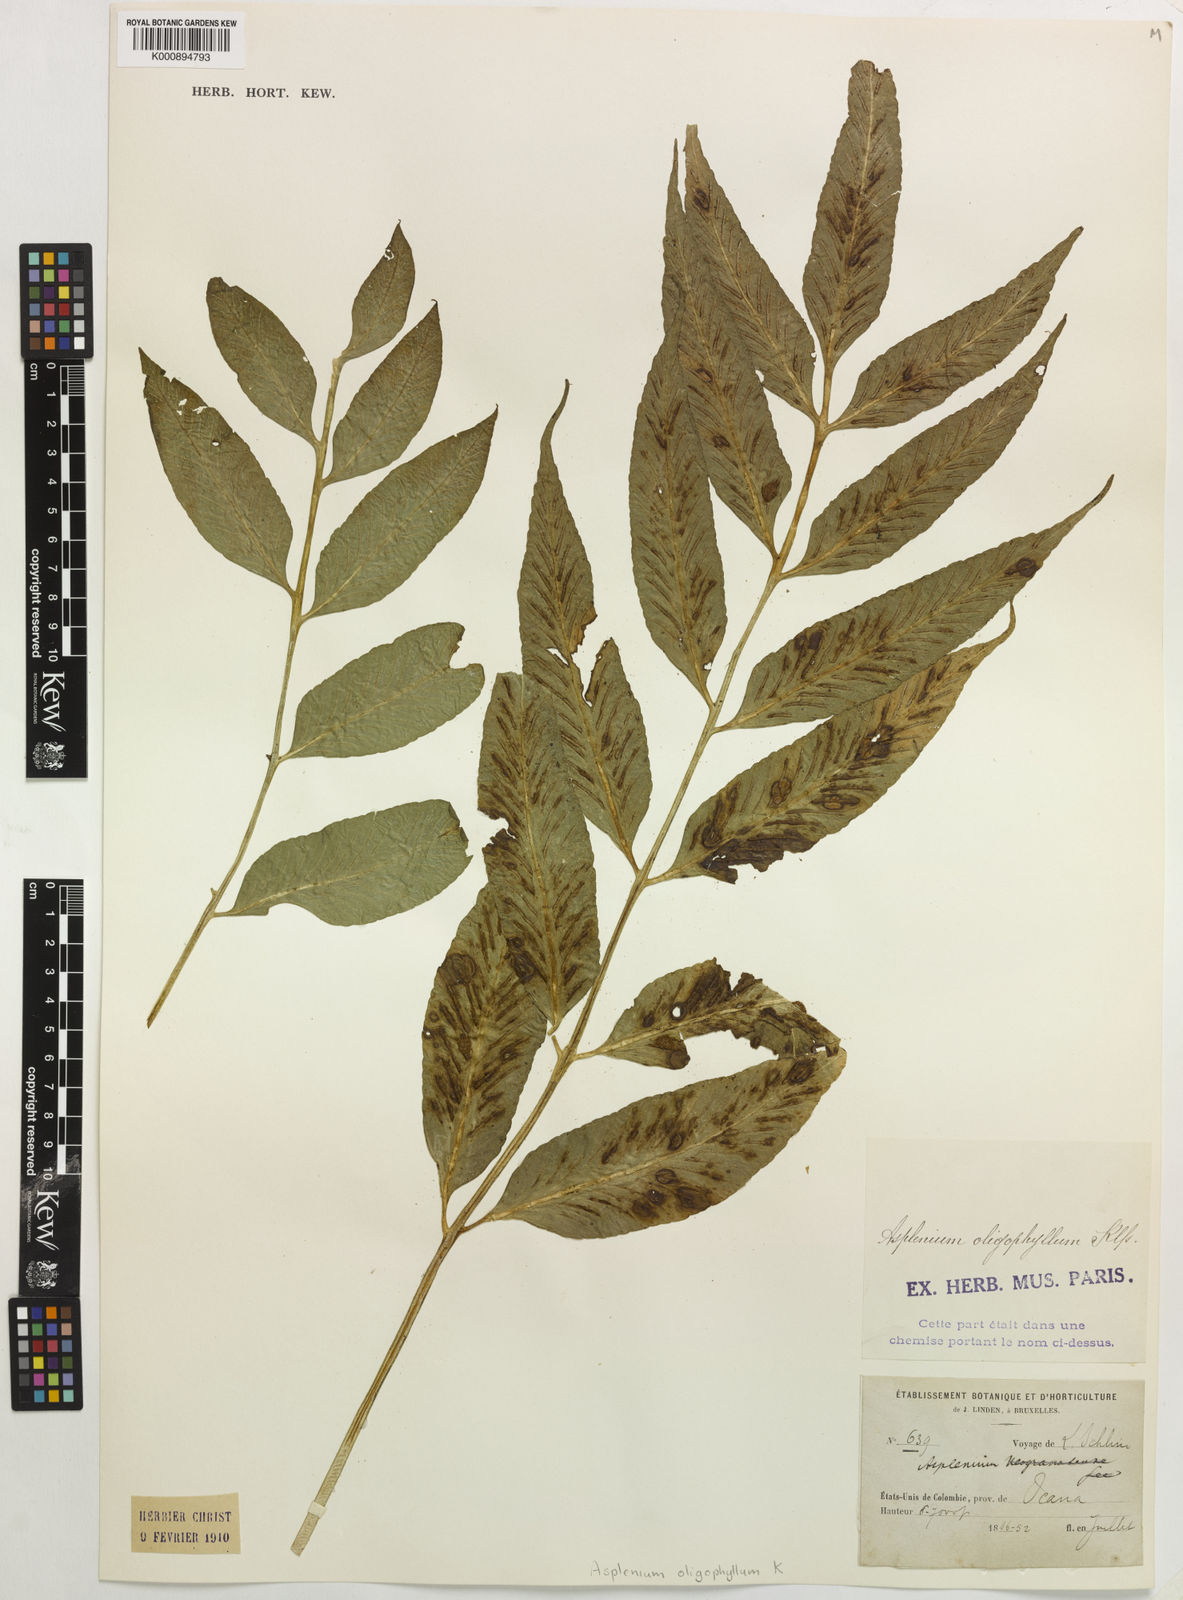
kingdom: Plantae
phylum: Tracheophyta
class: Polypodiopsida
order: Polypodiales
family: Aspleniaceae
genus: Asplenium
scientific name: Asplenium oligophyllum
